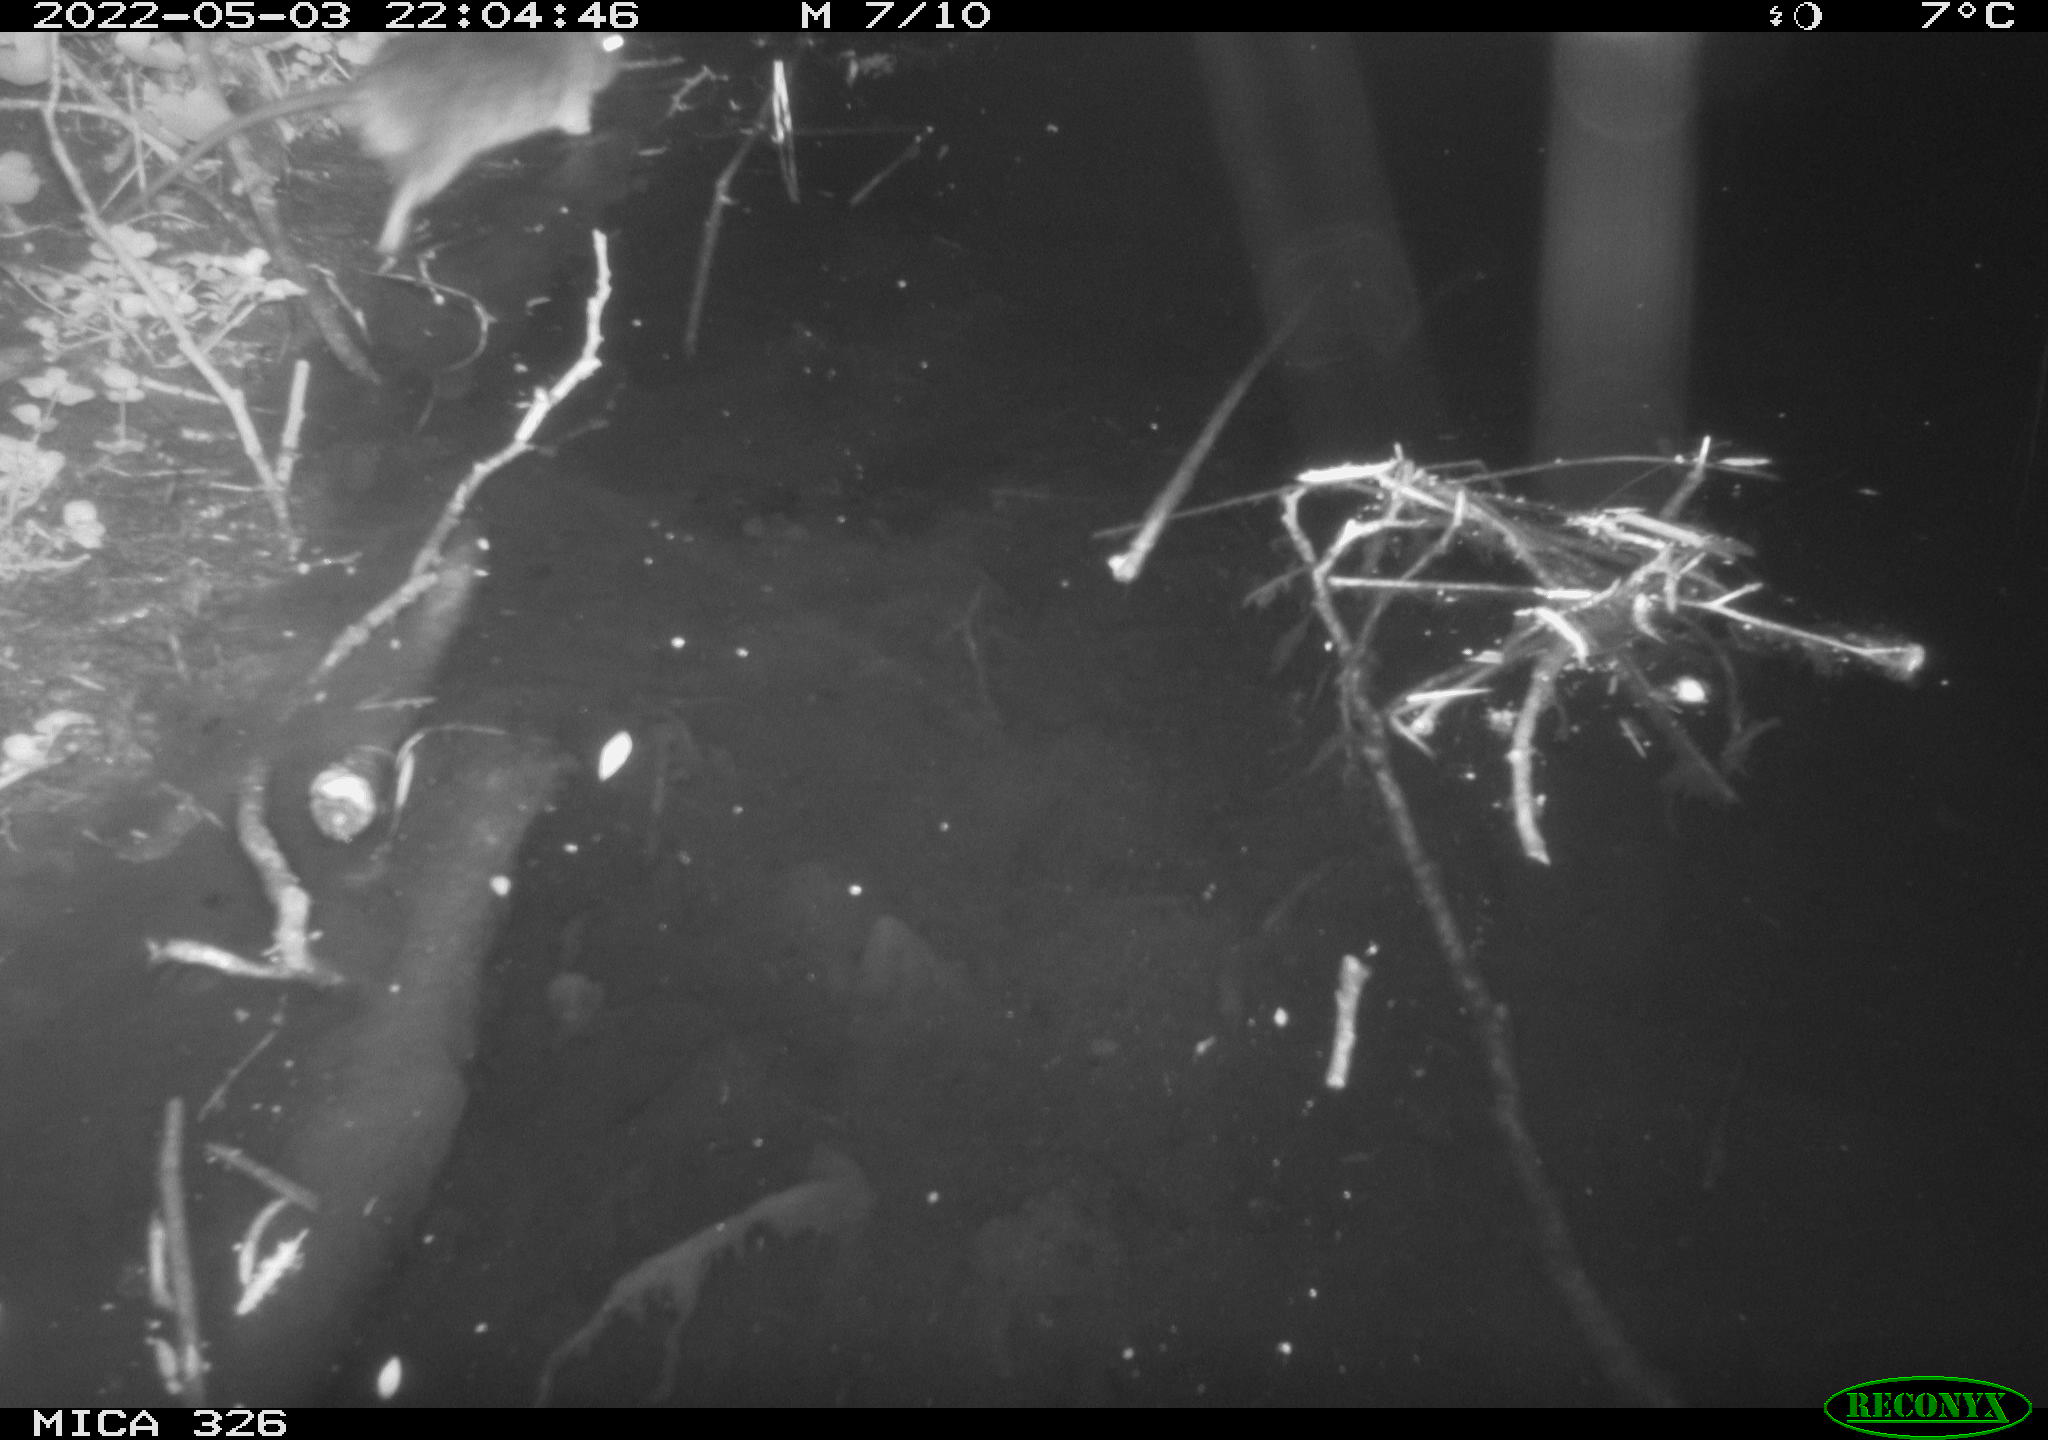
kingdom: Animalia
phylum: Chordata
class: Mammalia
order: Rodentia
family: Muridae
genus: Rattus
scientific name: Rattus norvegicus
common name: Brown rat
